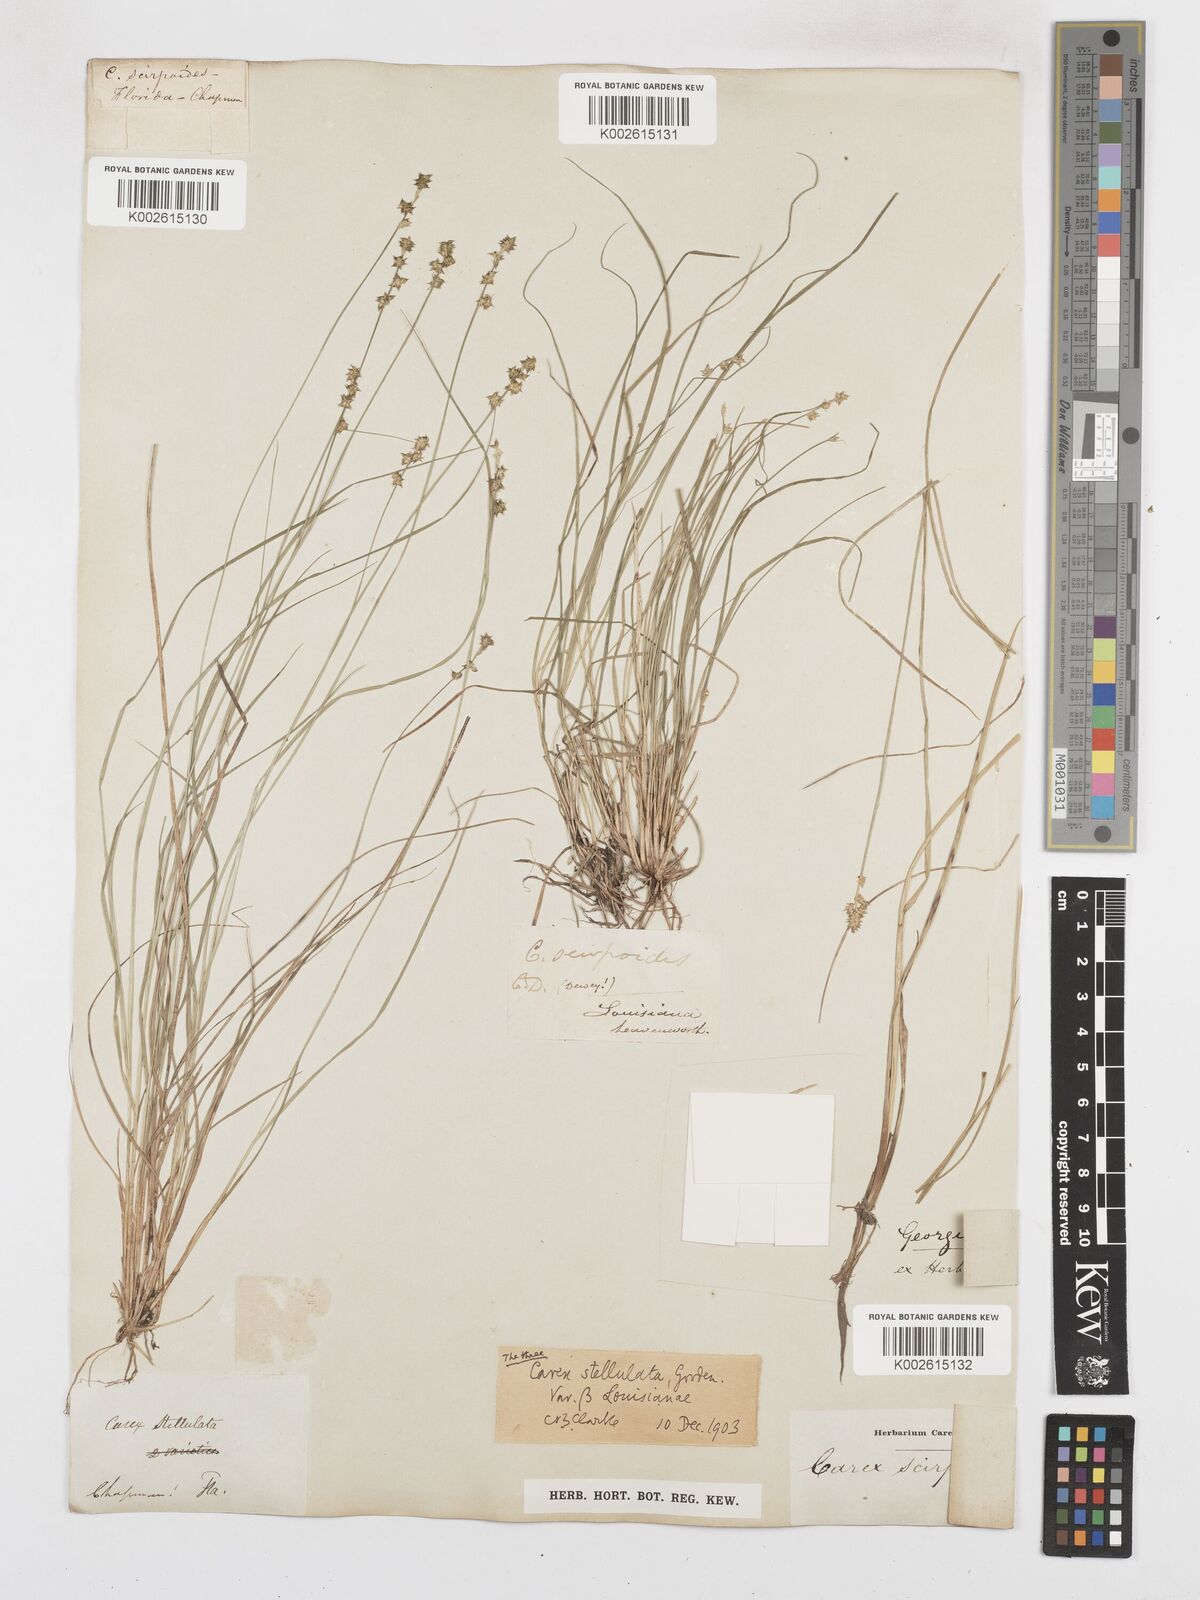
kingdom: Plantae
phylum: Tracheophyta
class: Liliopsida
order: Poales
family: Cyperaceae
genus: Carex
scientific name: Carex echinata
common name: Star sedge
